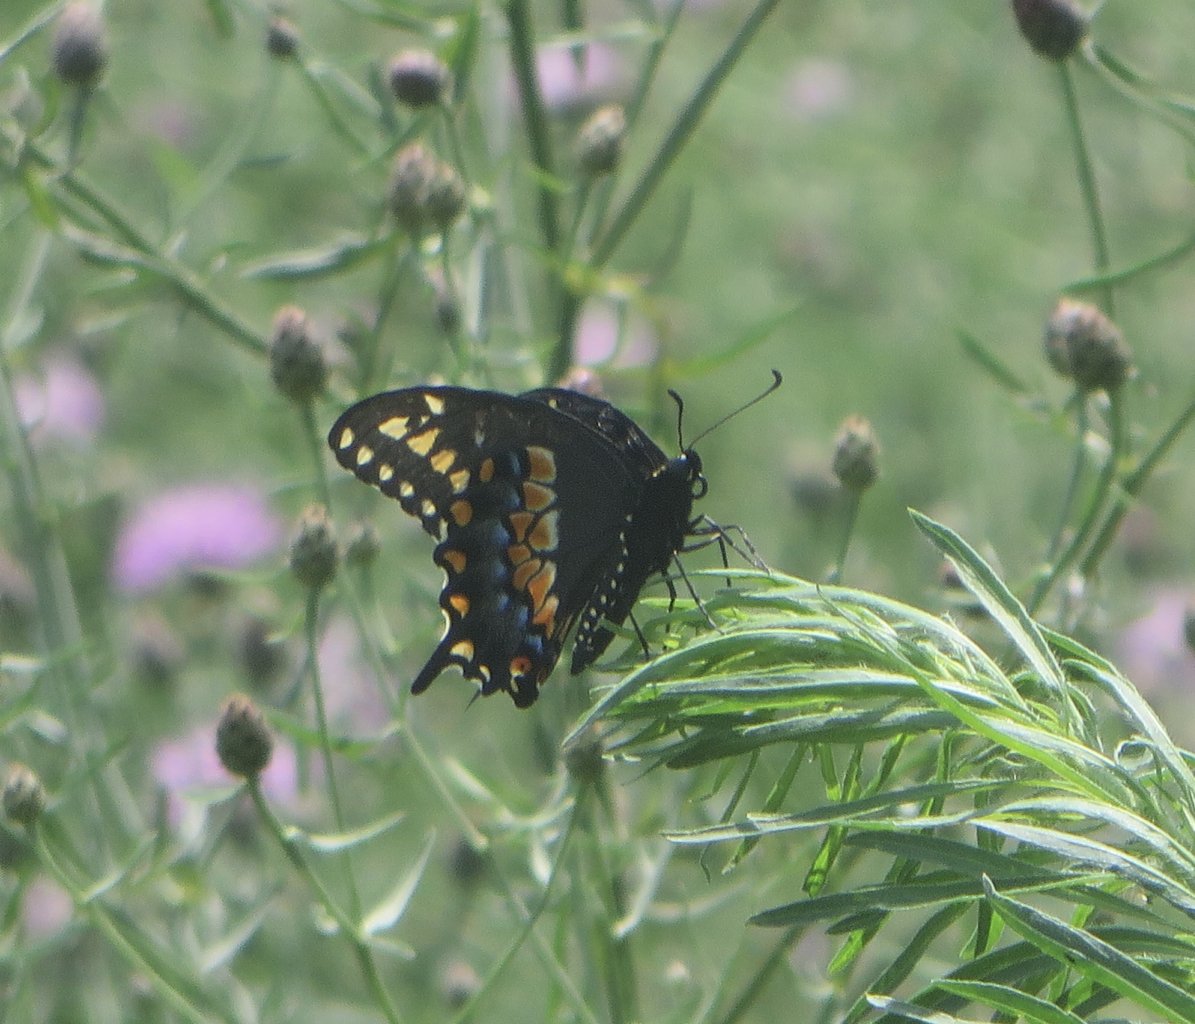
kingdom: Animalia
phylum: Arthropoda
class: Insecta
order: Lepidoptera
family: Papilionidae
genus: Papilio
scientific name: Papilio polyxenes
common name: Black Swallowtail
